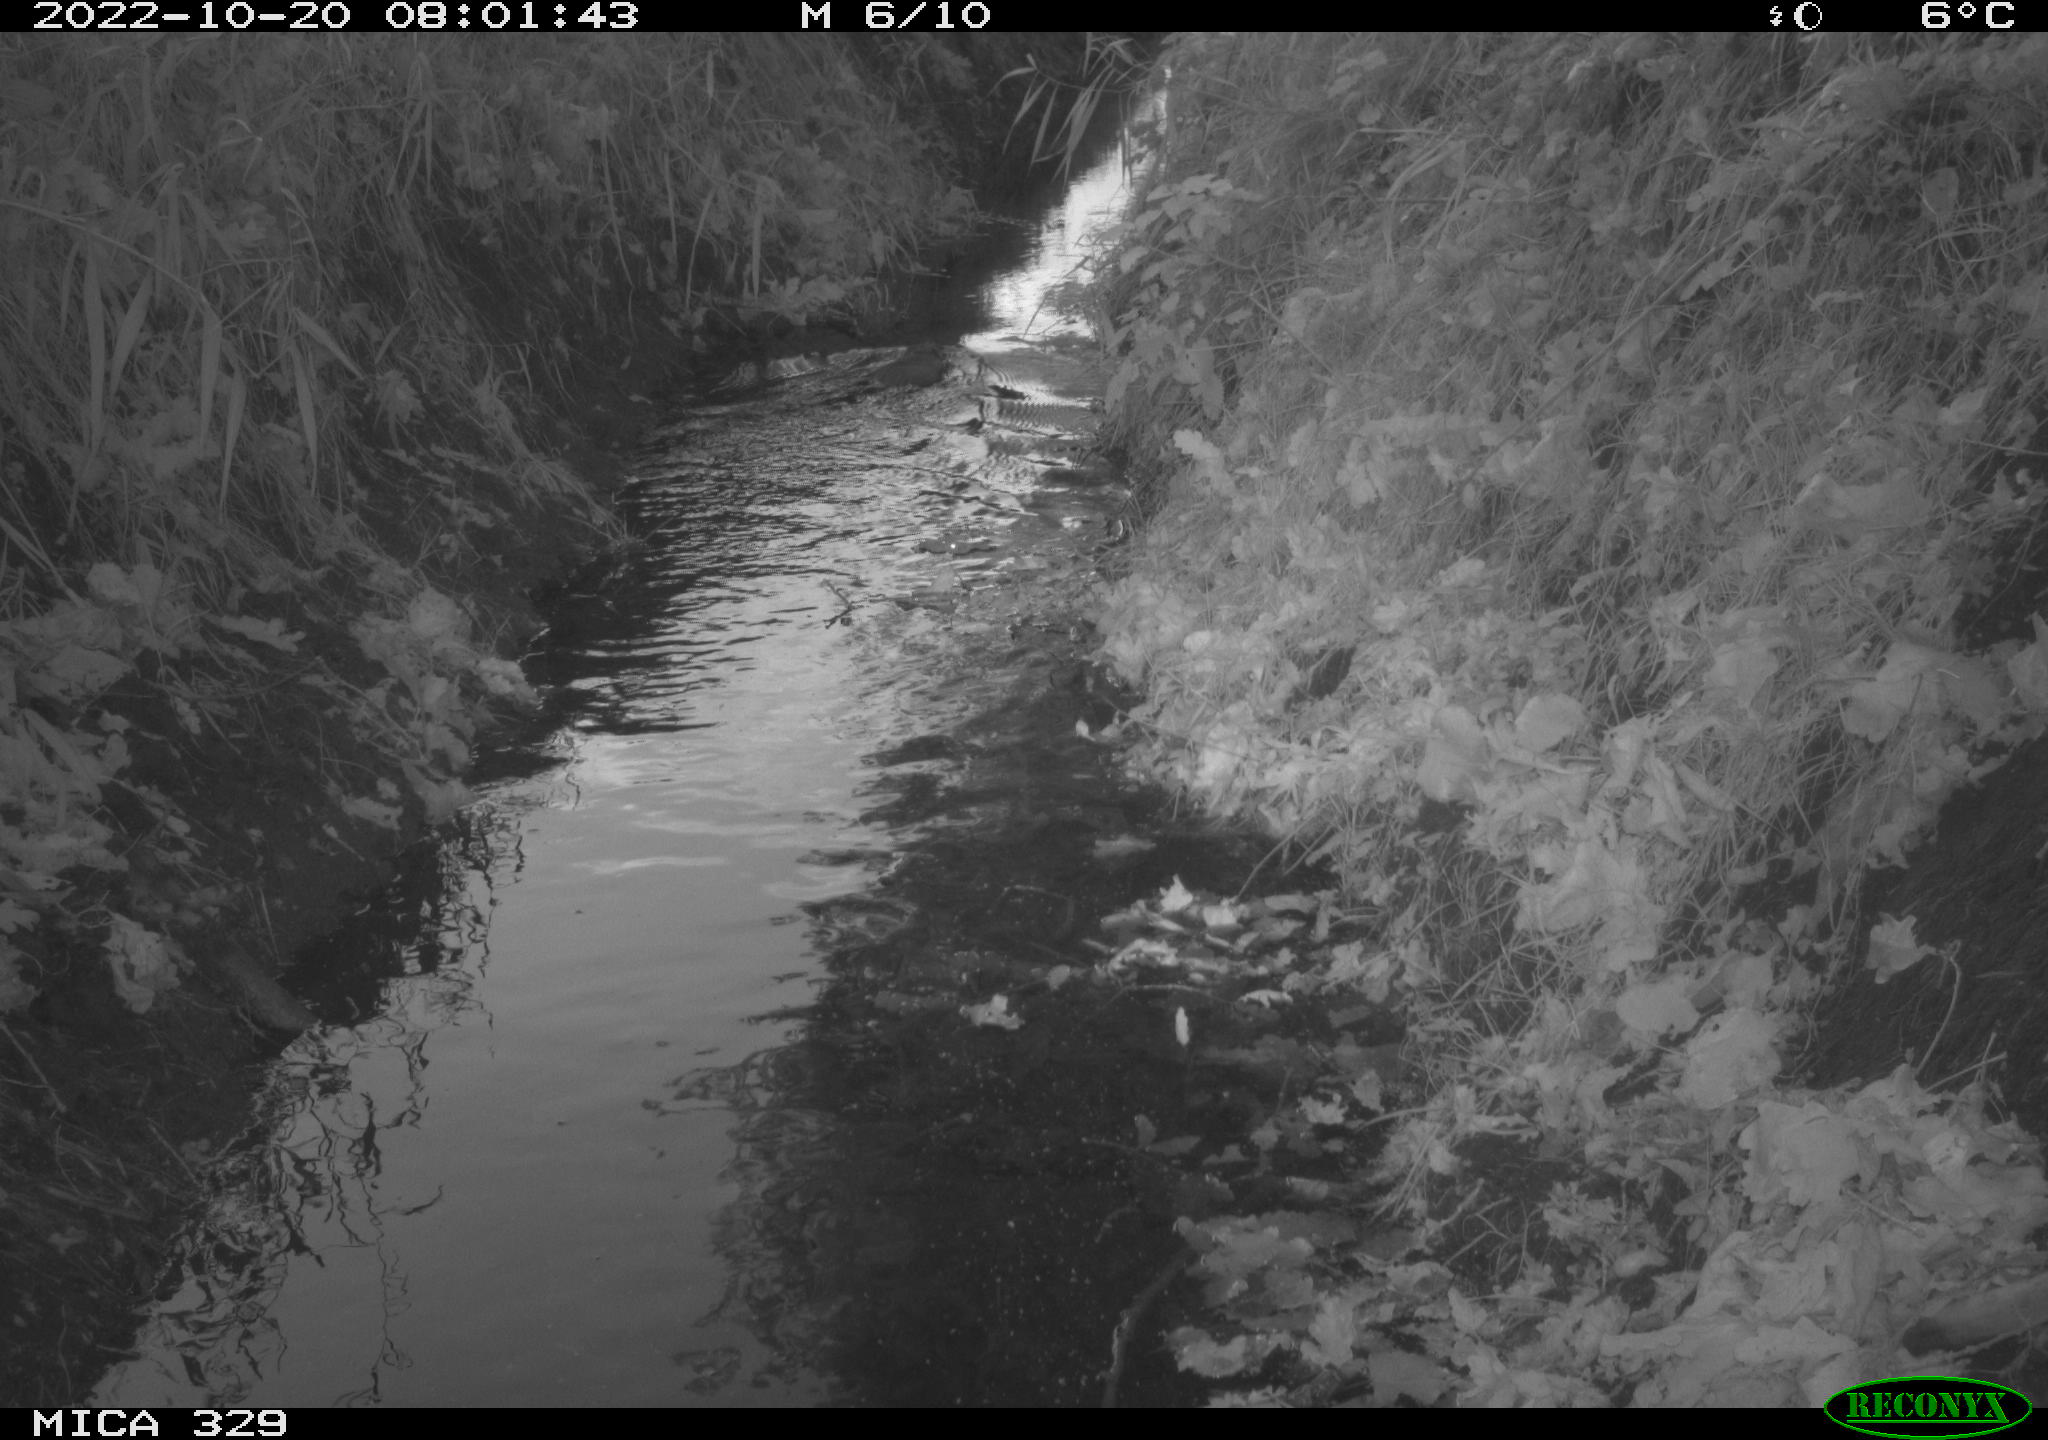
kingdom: Animalia
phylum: Chordata
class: Mammalia
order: Rodentia
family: Cricetidae
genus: Ondatra
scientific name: Ondatra zibethicus
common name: Muskrat
